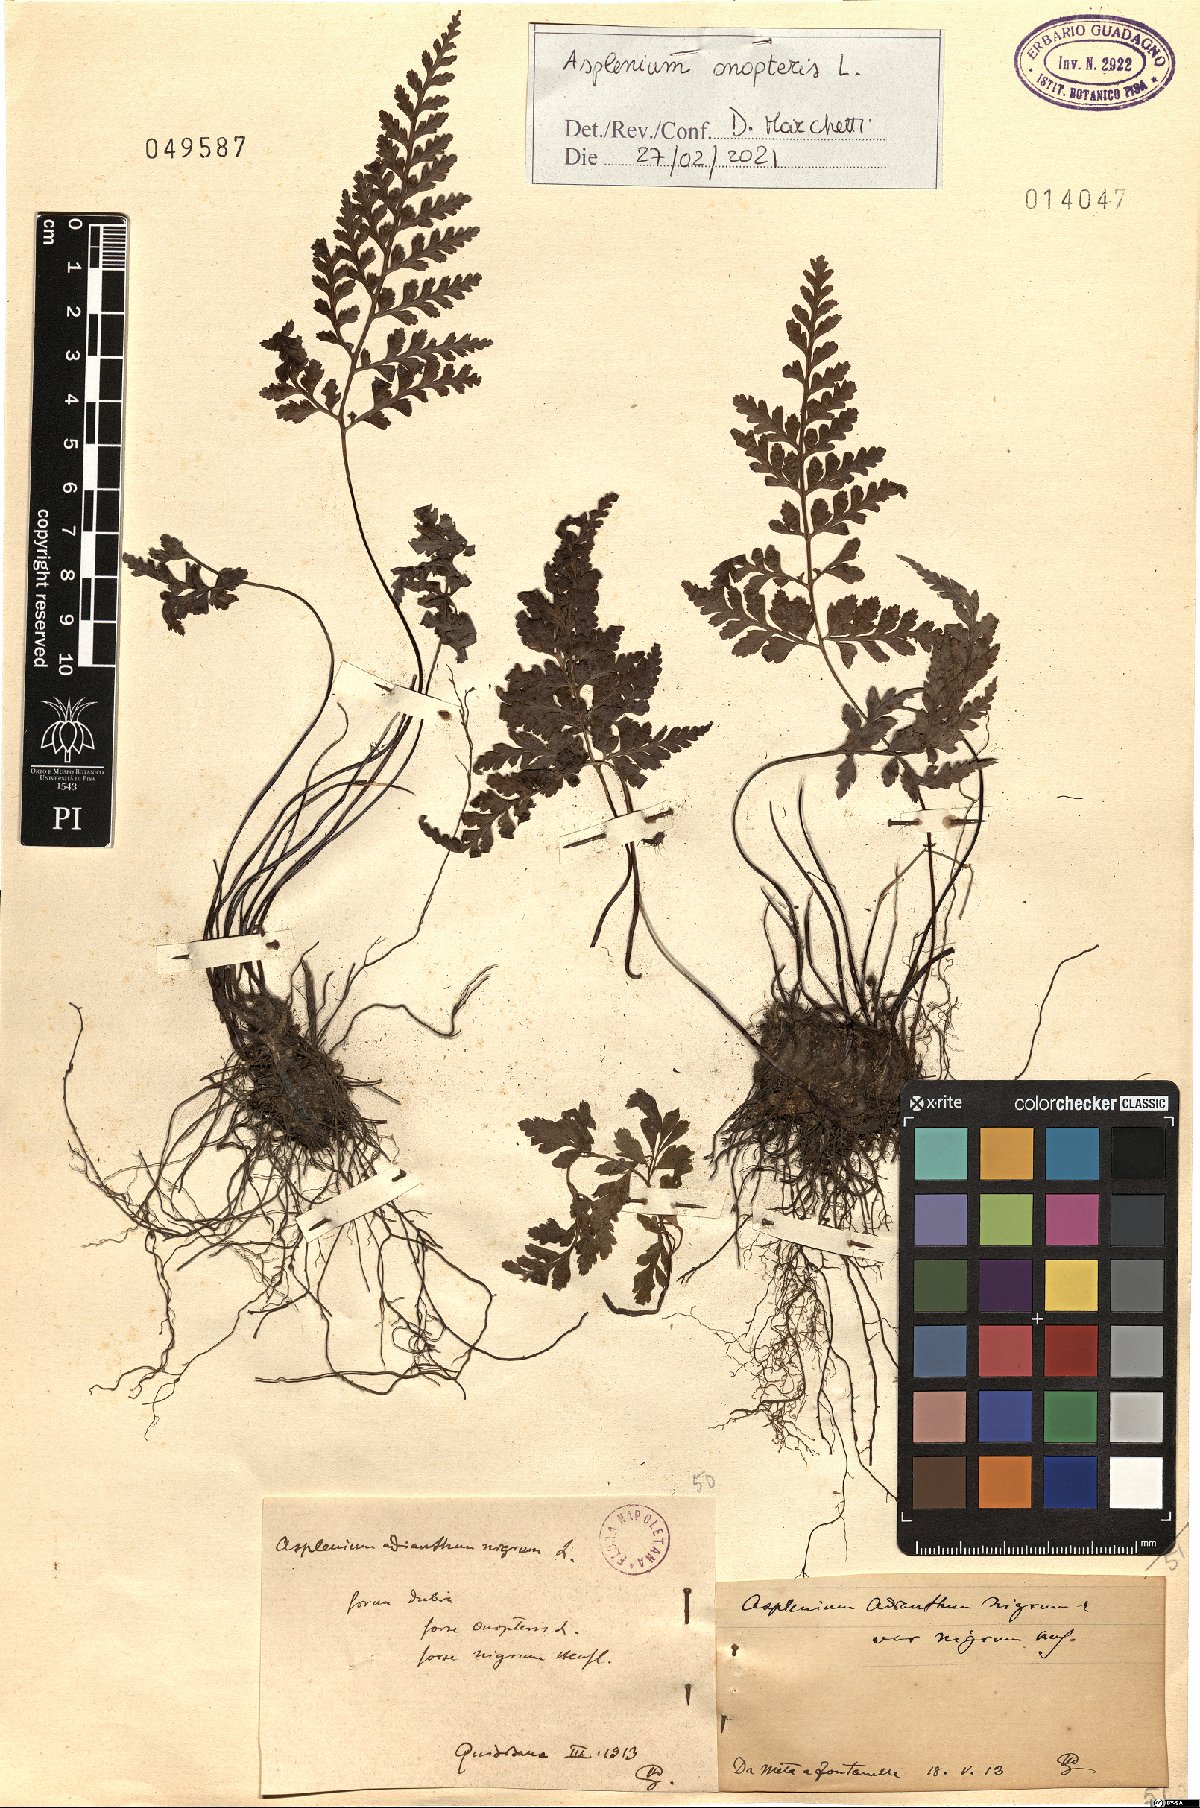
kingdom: Plantae
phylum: Tracheophyta
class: Polypodiopsida
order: Polypodiales
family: Aspleniaceae
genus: Asplenium
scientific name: Asplenium onopteris
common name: Irish spleenwort
